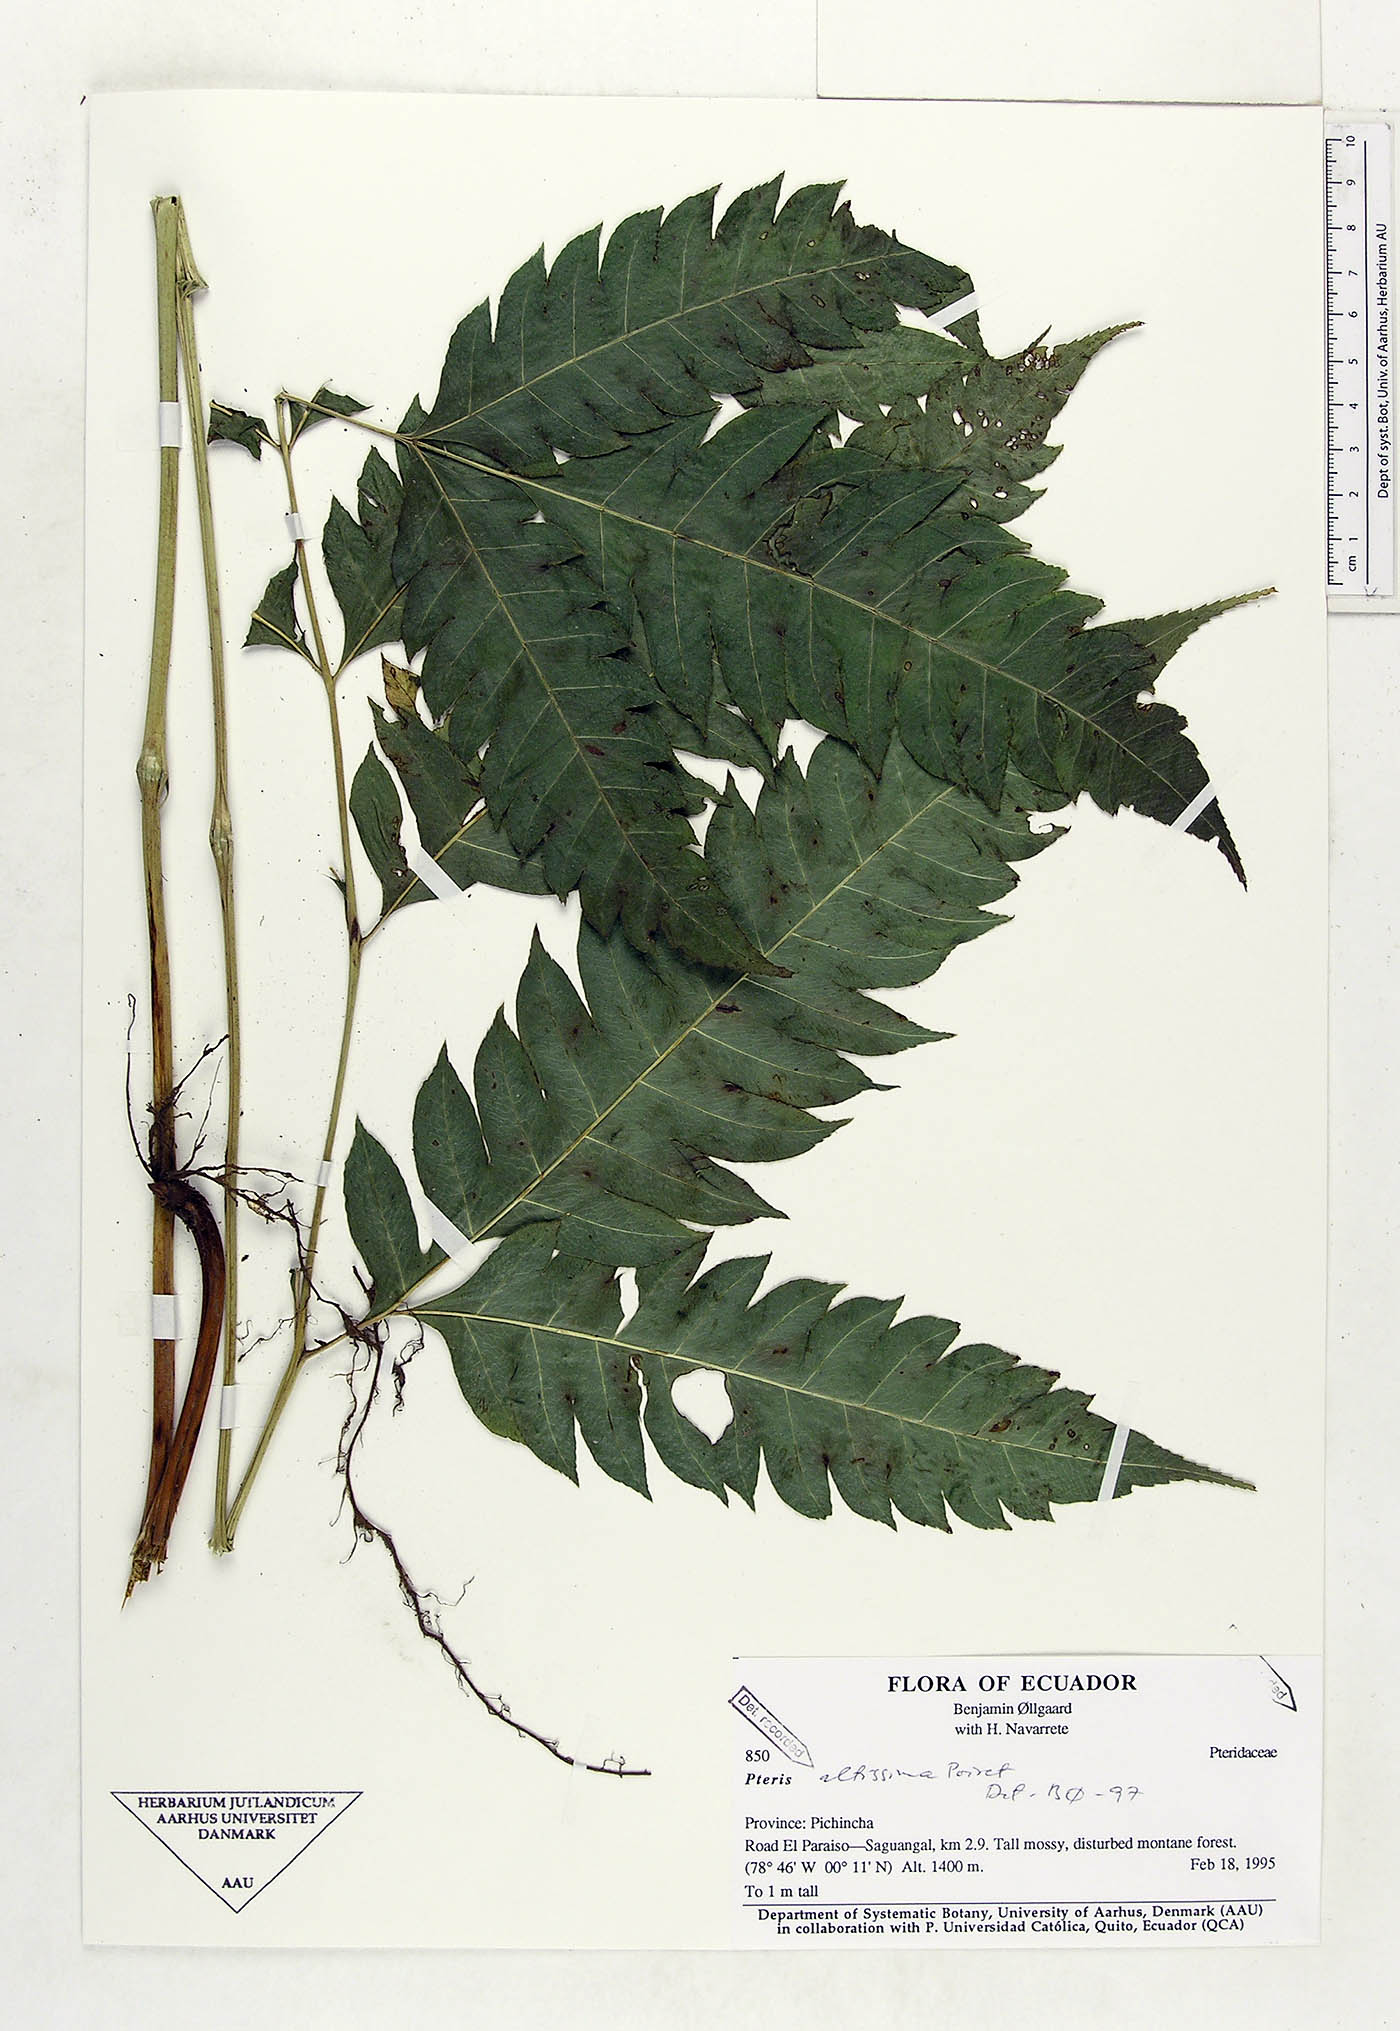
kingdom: Plantae
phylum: Tracheophyta
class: Polypodiopsida
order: Polypodiales
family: Pteridaceae
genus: Pteris
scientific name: Pteris altissima
